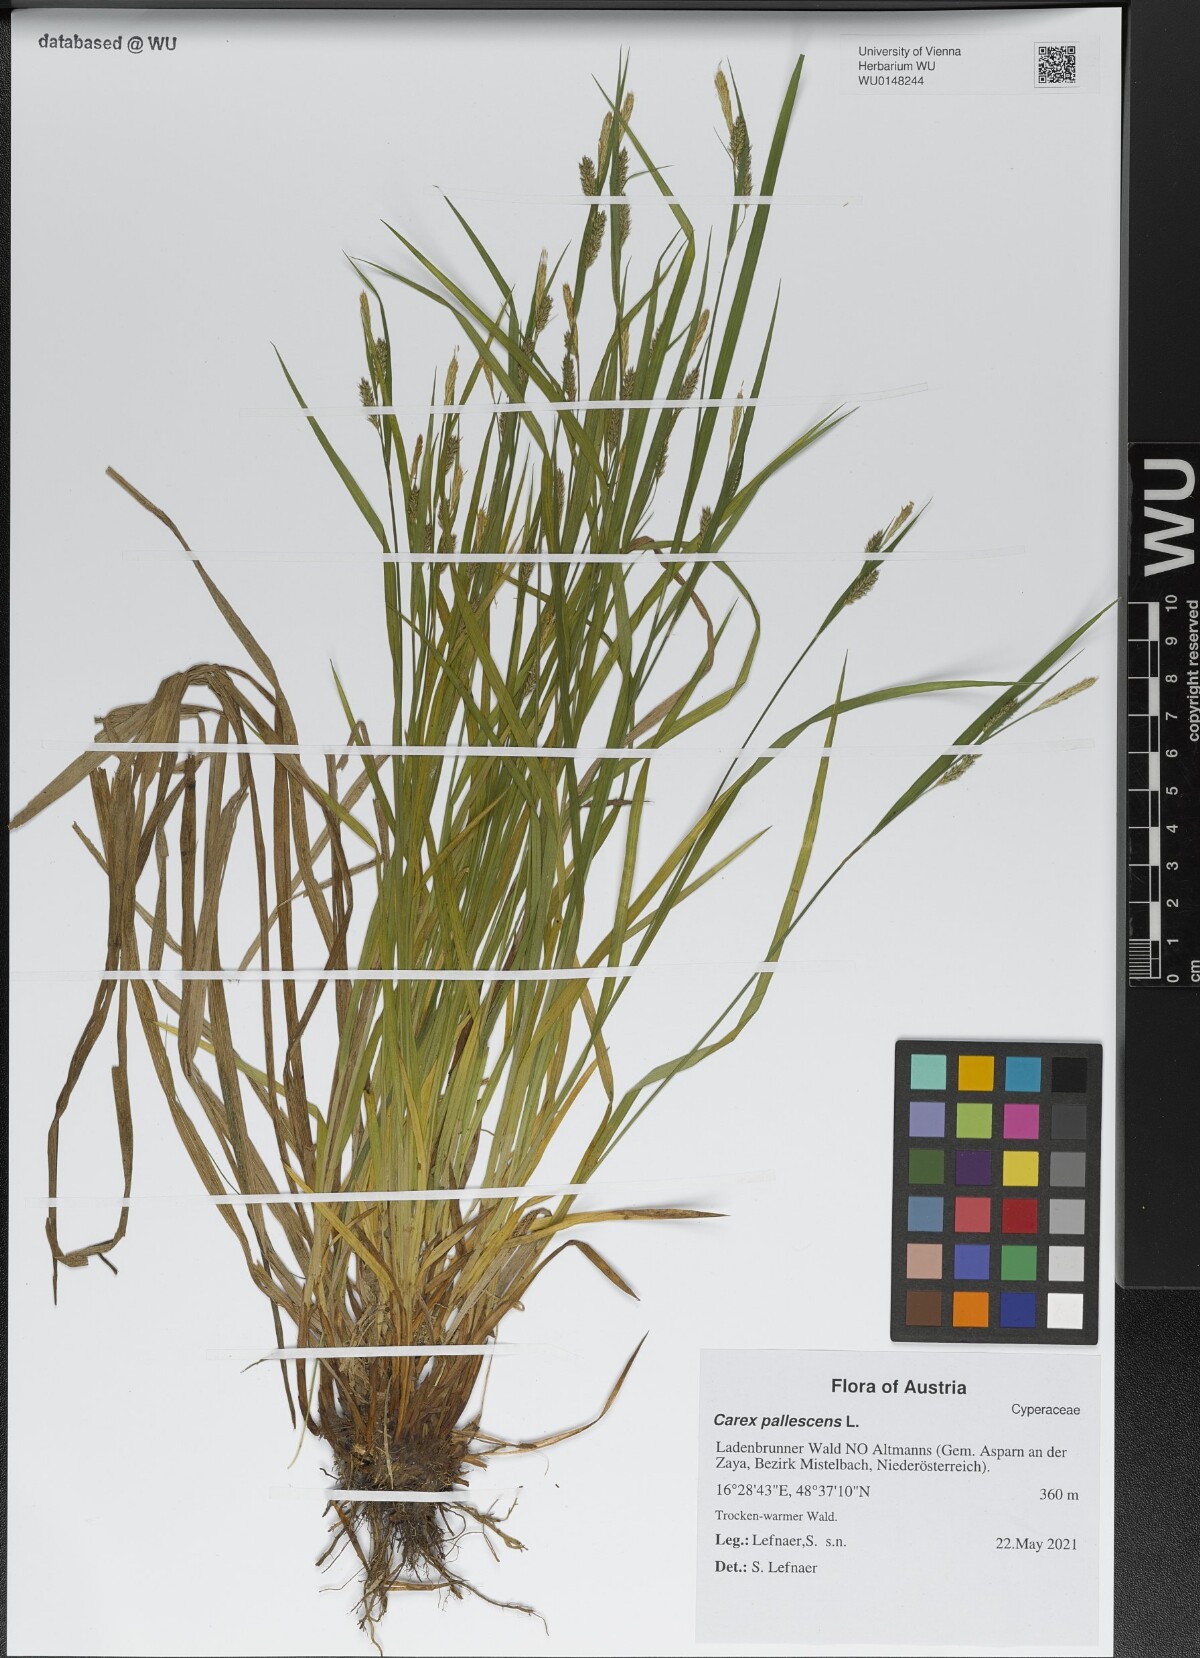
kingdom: Plantae
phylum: Tracheophyta
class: Liliopsida
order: Poales
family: Cyperaceae
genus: Carex
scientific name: Carex pallescens
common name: Pale sedge
